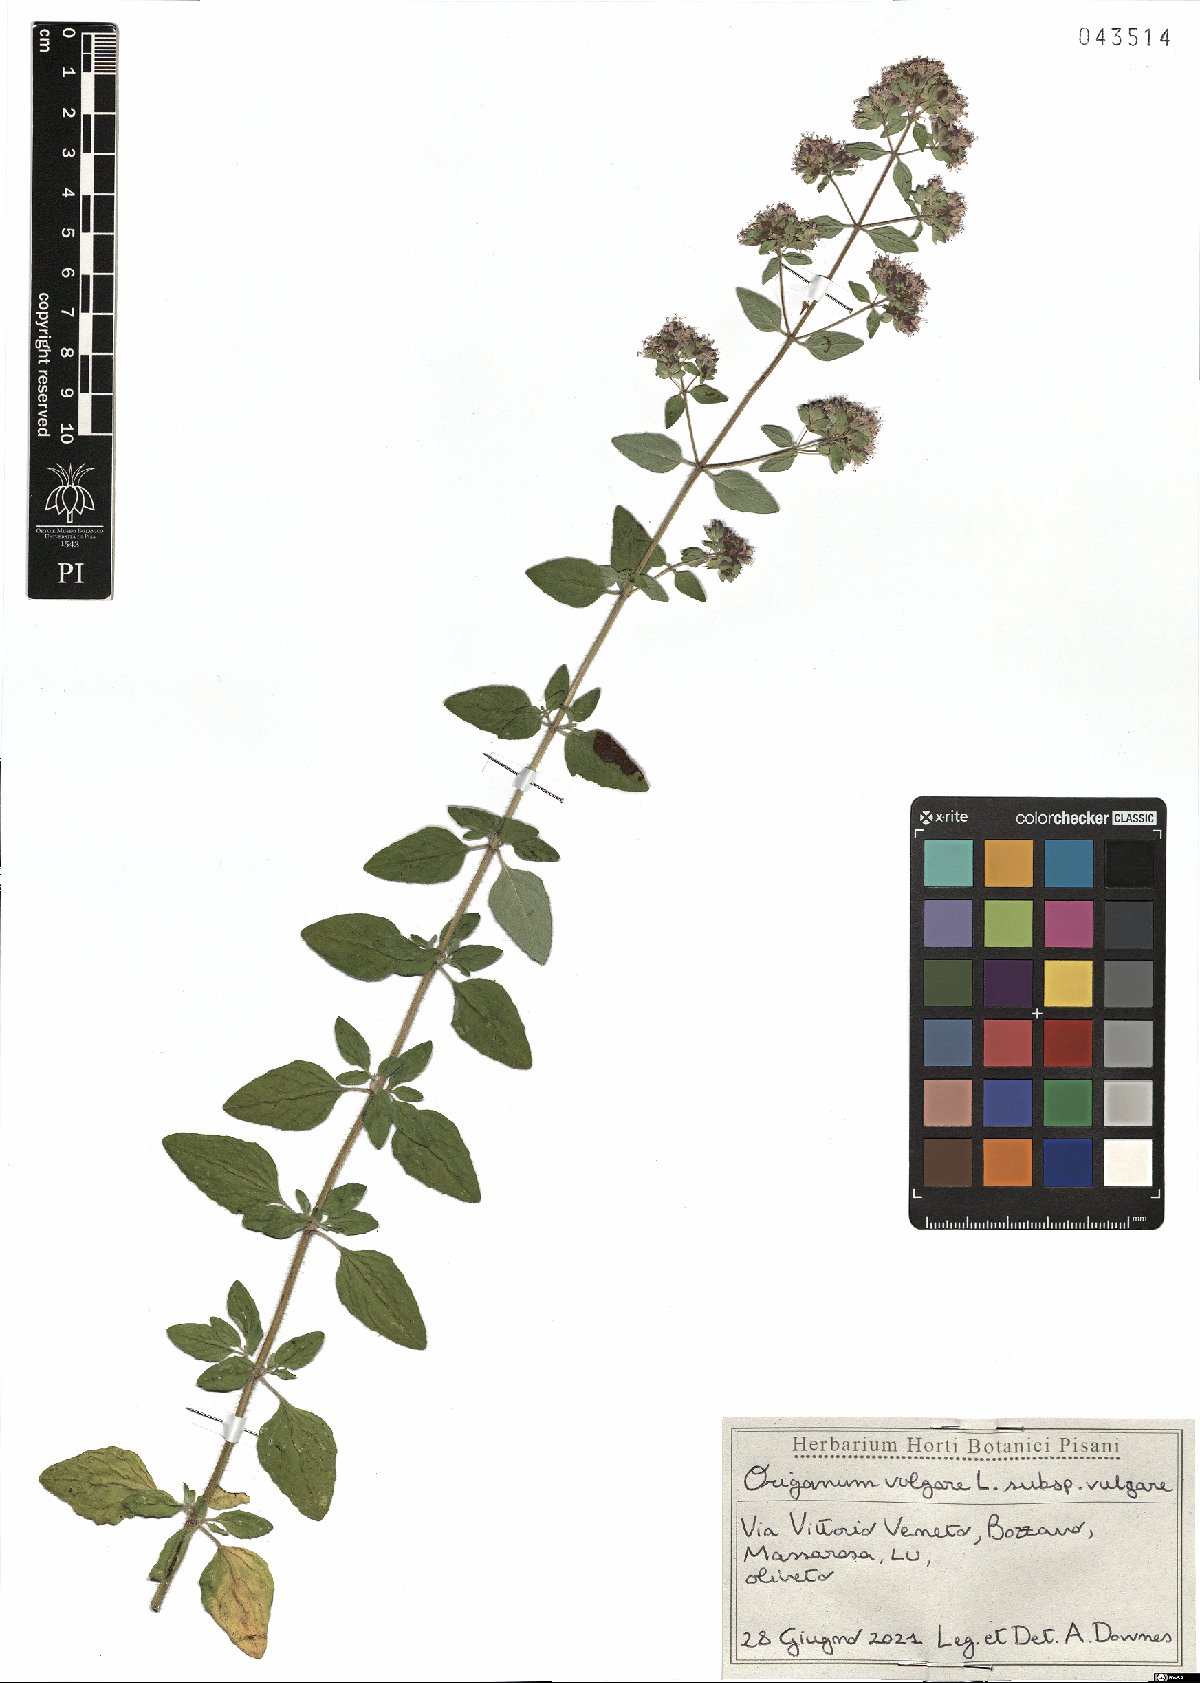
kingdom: Plantae
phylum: Tracheophyta
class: Magnoliopsida
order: Lamiales
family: Lamiaceae
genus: Origanum
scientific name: Origanum vulgare
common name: Wild marjoram
